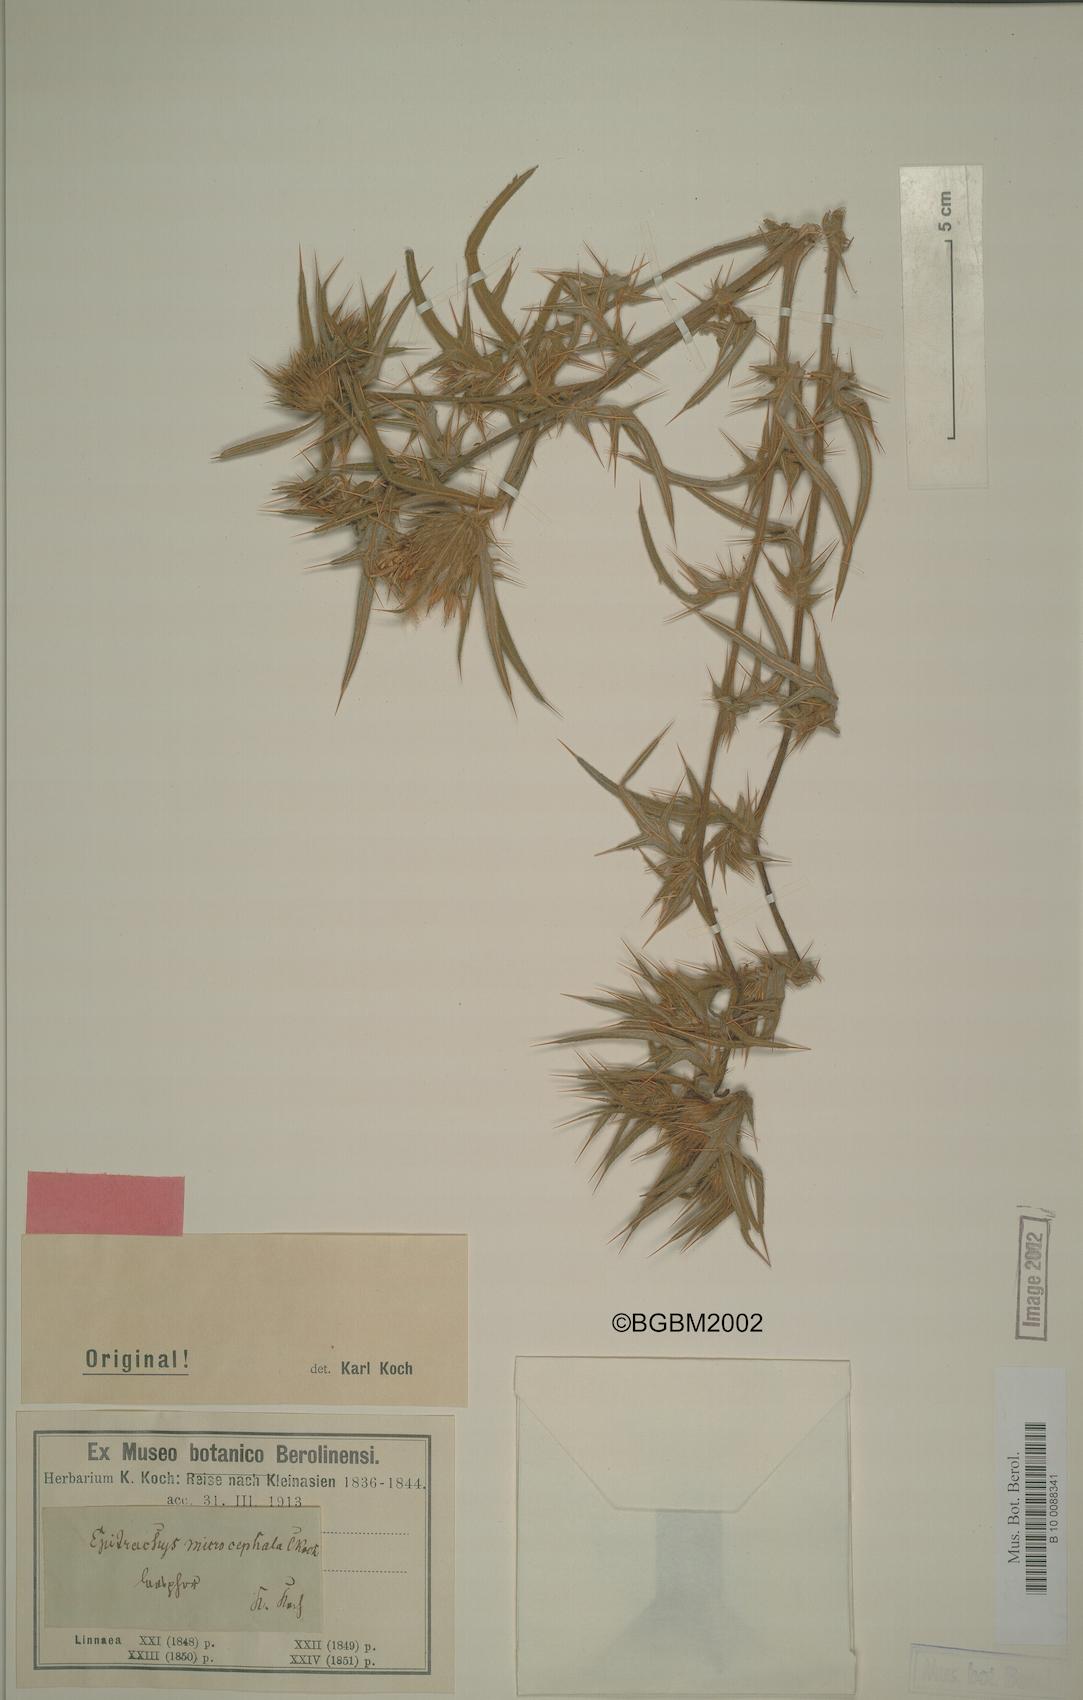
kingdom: Plantae
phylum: Tracheophyta
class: Magnoliopsida
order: Asterales
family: Asteraceae
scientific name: Asteraceae
